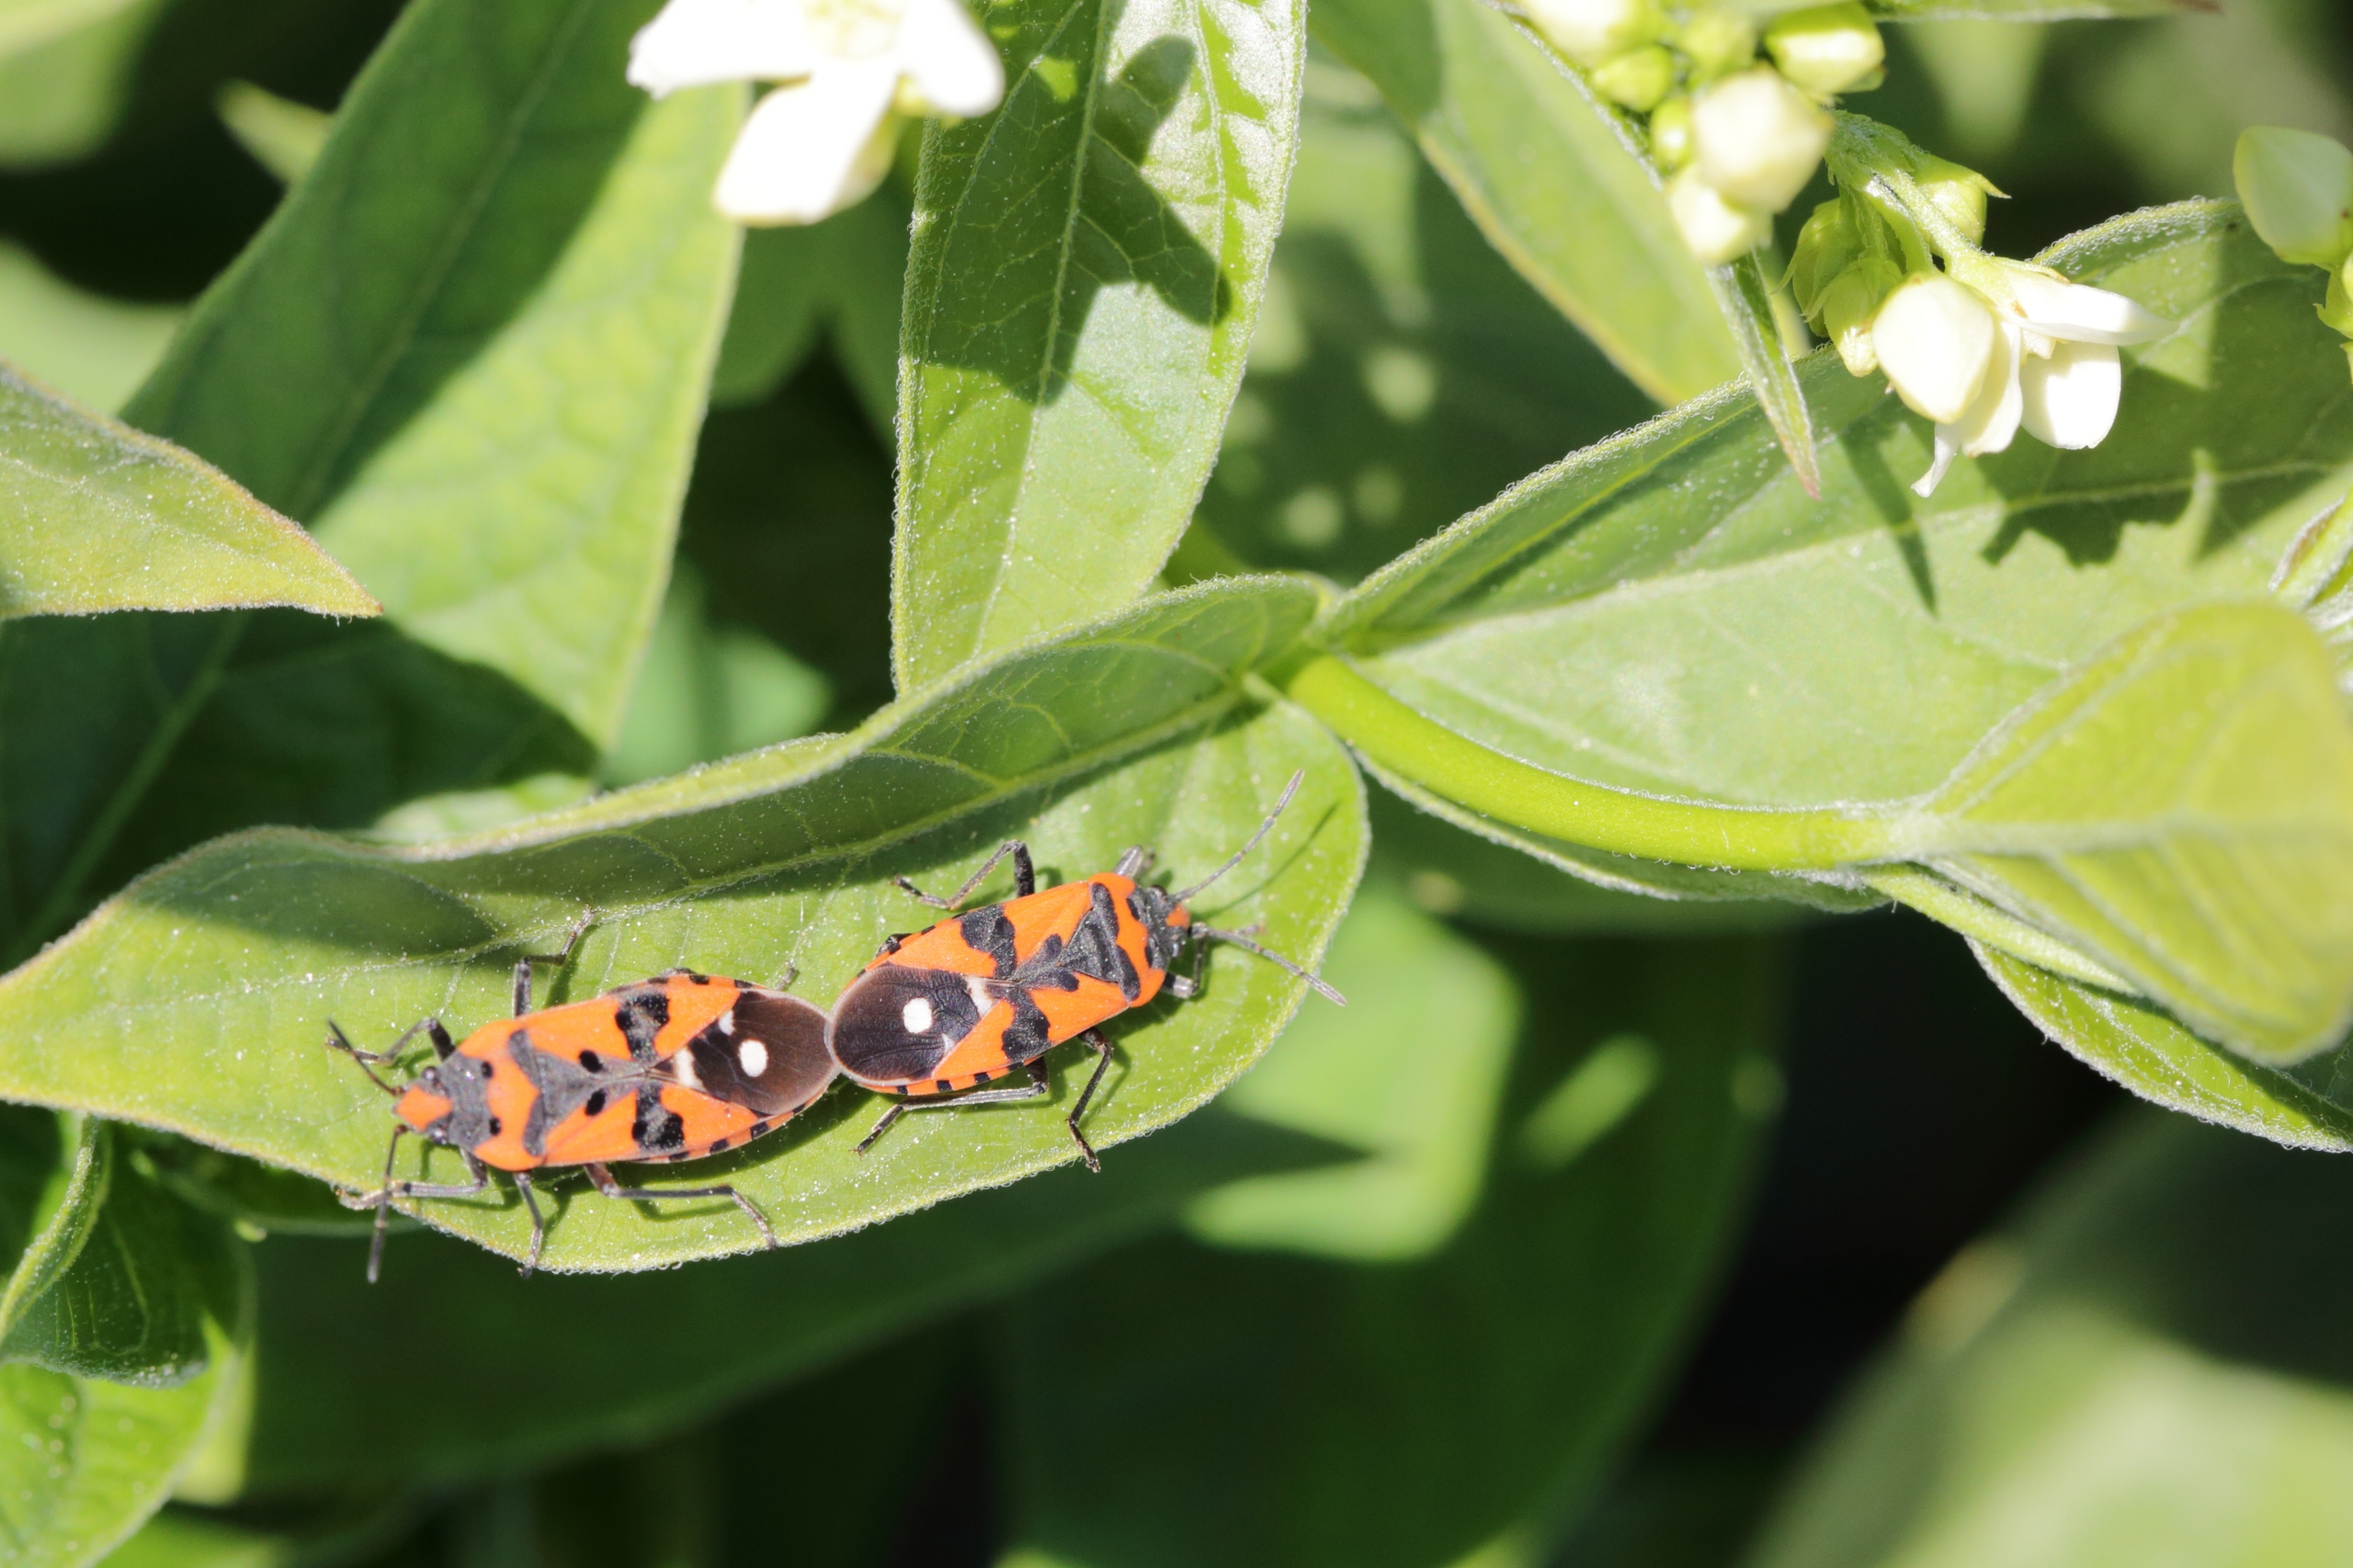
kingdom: Animalia
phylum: Arthropoda
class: Insecta
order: Hemiptera
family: Lygaeidae
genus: Lygaeus
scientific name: Lygaeus equestris
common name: Soldatertæge
